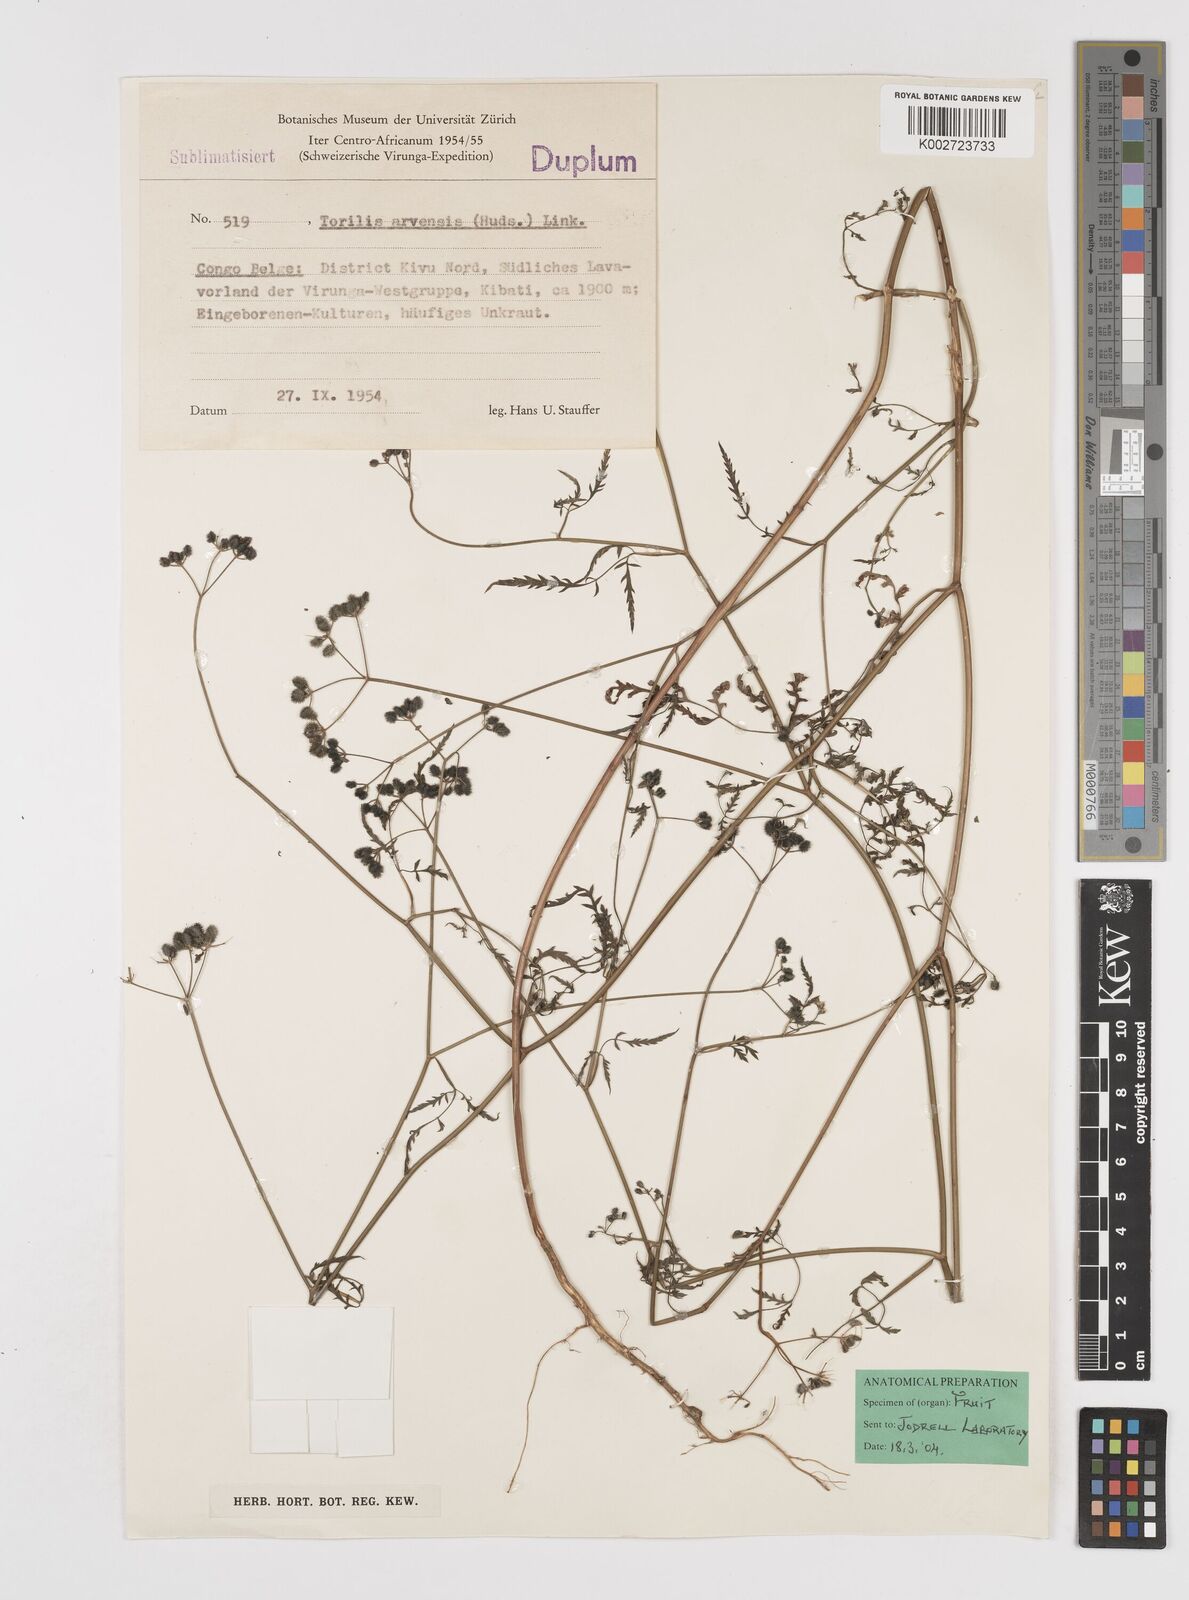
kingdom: Plantae
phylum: Tracheophyta
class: Magnoliopsida
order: Apiales
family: Apiaceae
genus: Torilis
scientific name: Torilis arvensis
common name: Spreading hedge-parsley
